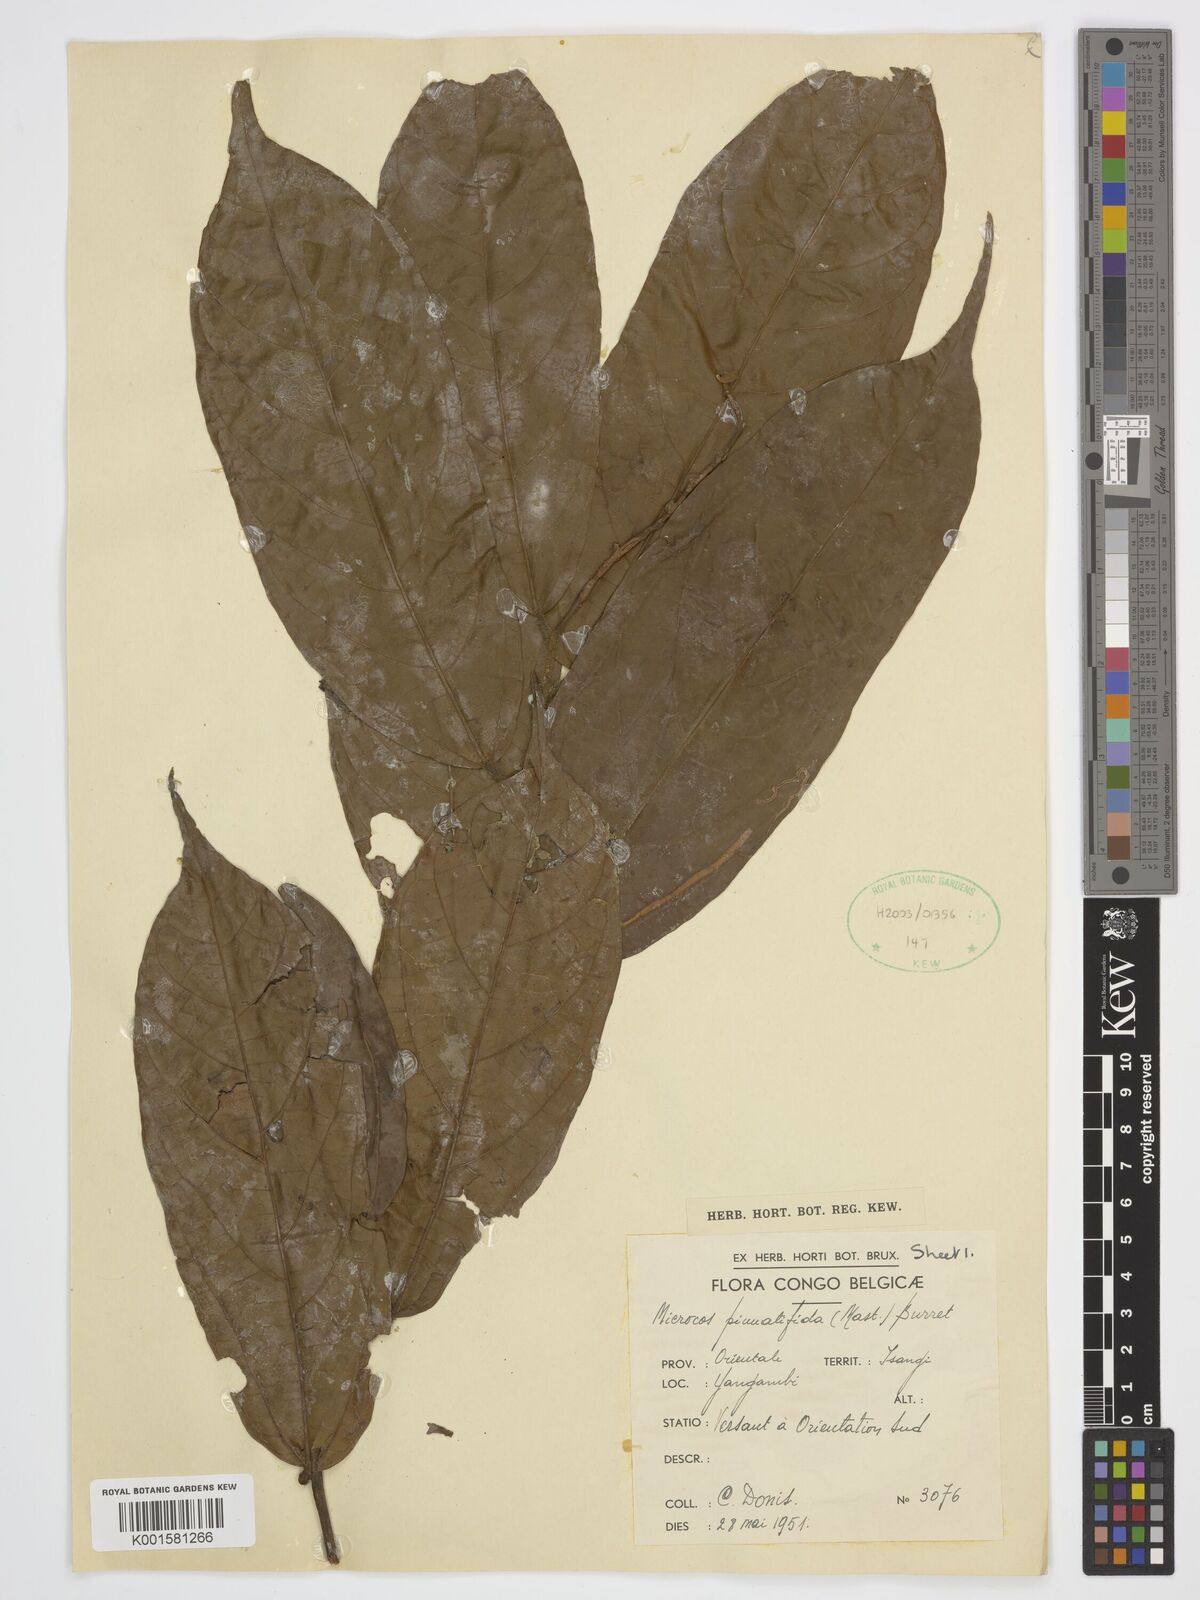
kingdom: Plantae
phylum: Tracheophyta
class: Magnoliopsida
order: Malvales
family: Malvaceae
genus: Microcos
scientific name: Microcos pinnatifida
